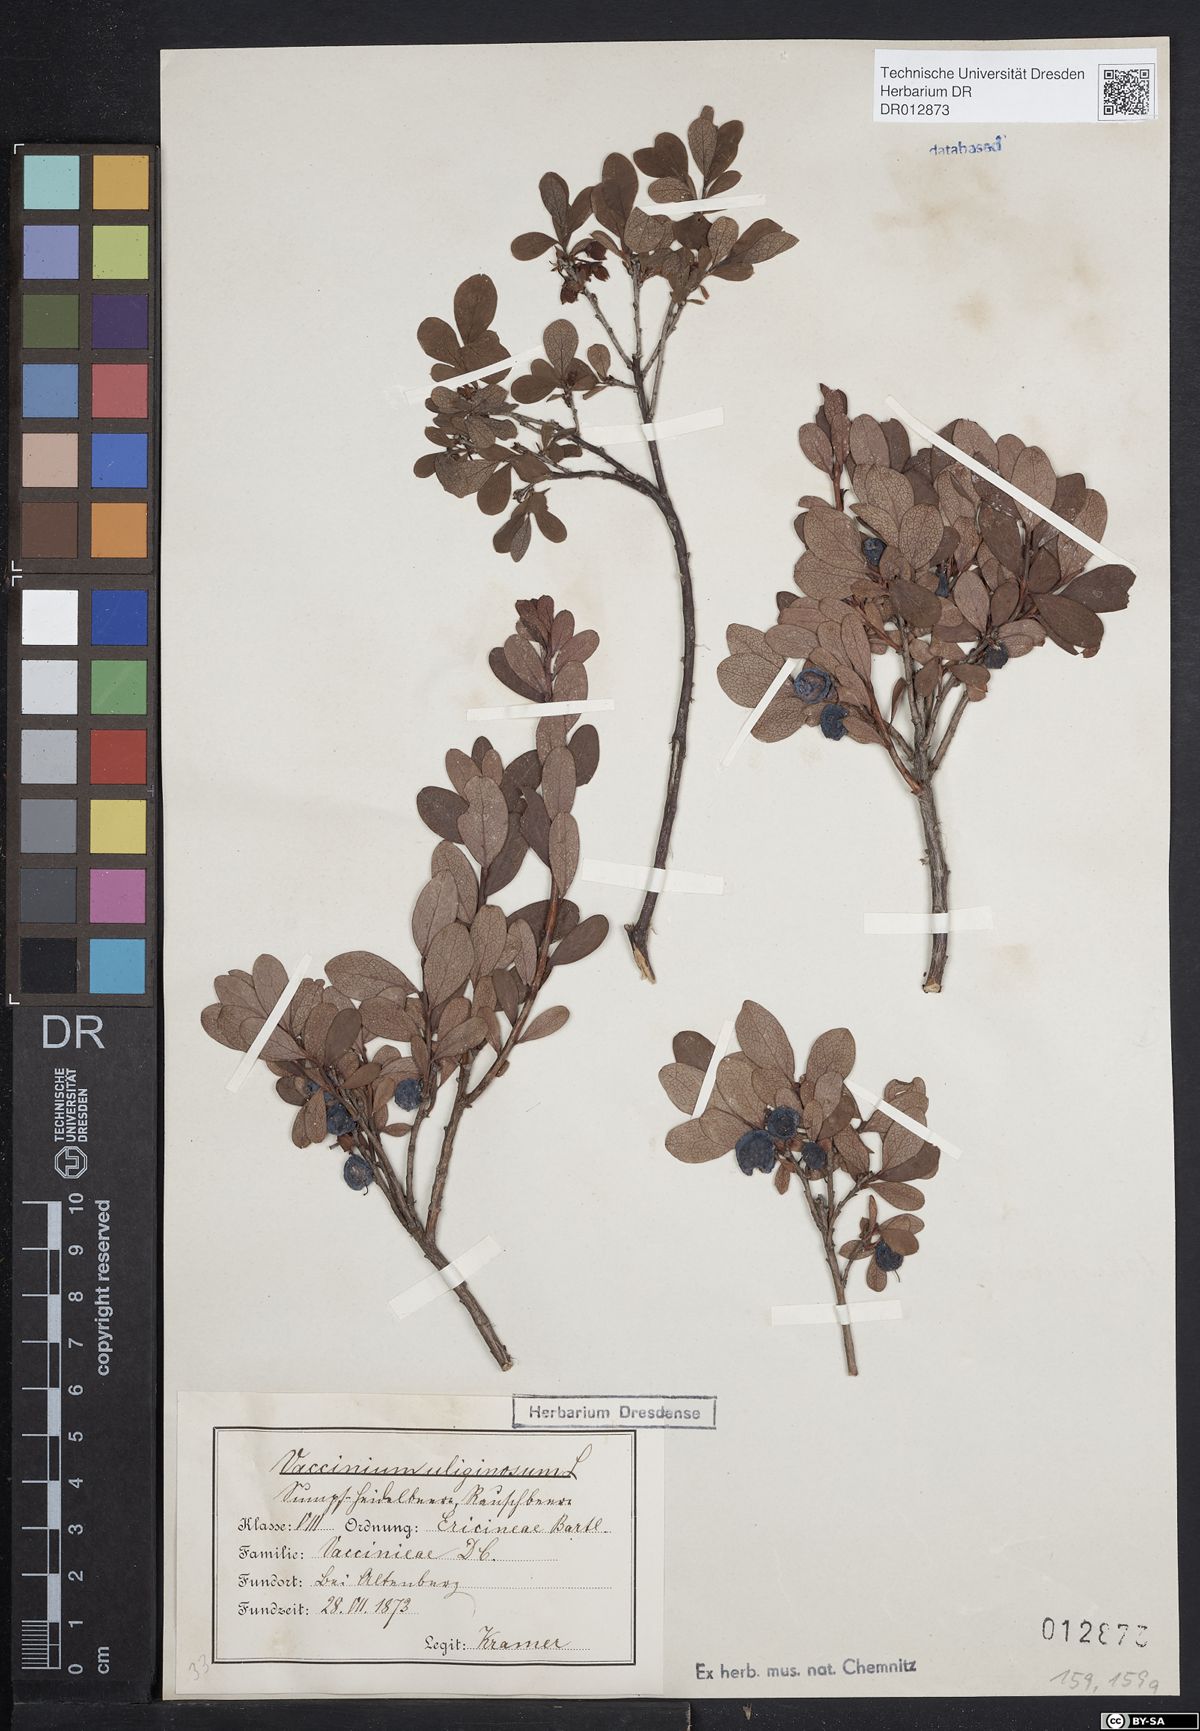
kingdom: Plantae
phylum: Tracheophyta
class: Magnoliopsida
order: Ericales
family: Ericaceae
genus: Vaccinium
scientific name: Vaccinium uliginosum
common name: Bog bilberry
